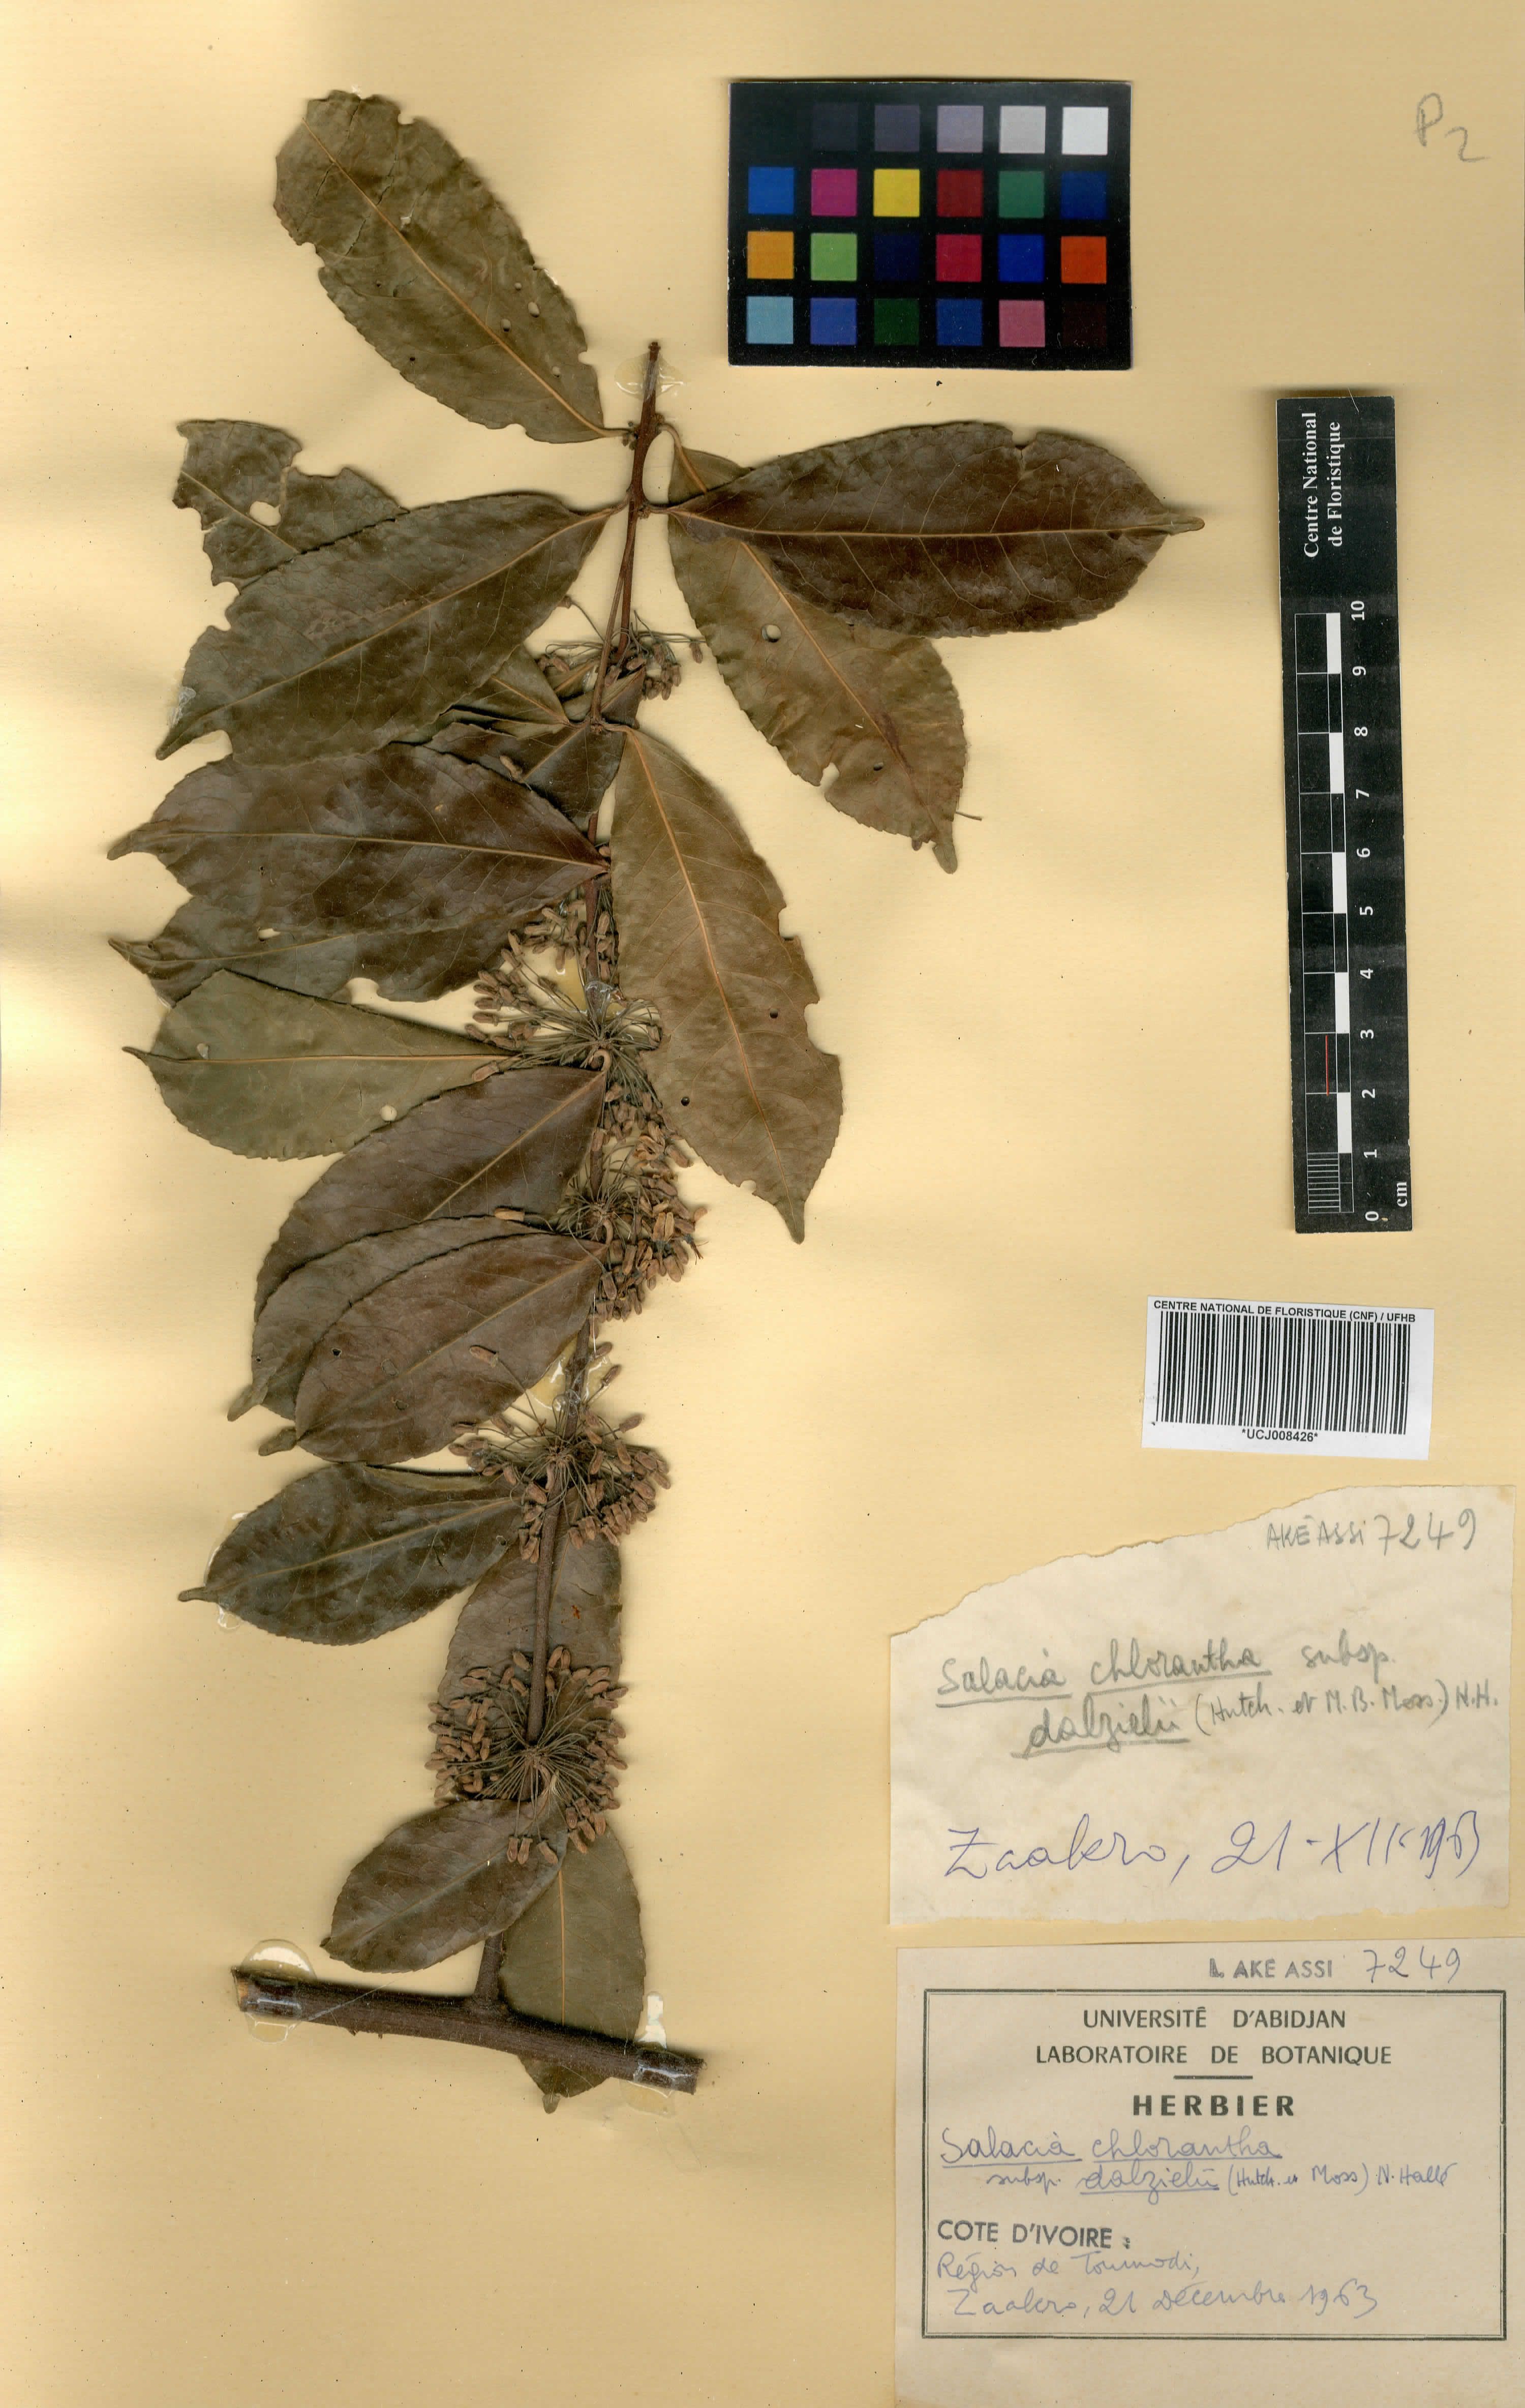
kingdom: Plantae
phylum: Tracheophyta
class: Magnoliopsida
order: Celastrales
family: Celastraceae
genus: Salacia
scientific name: Salacia chlorantha
